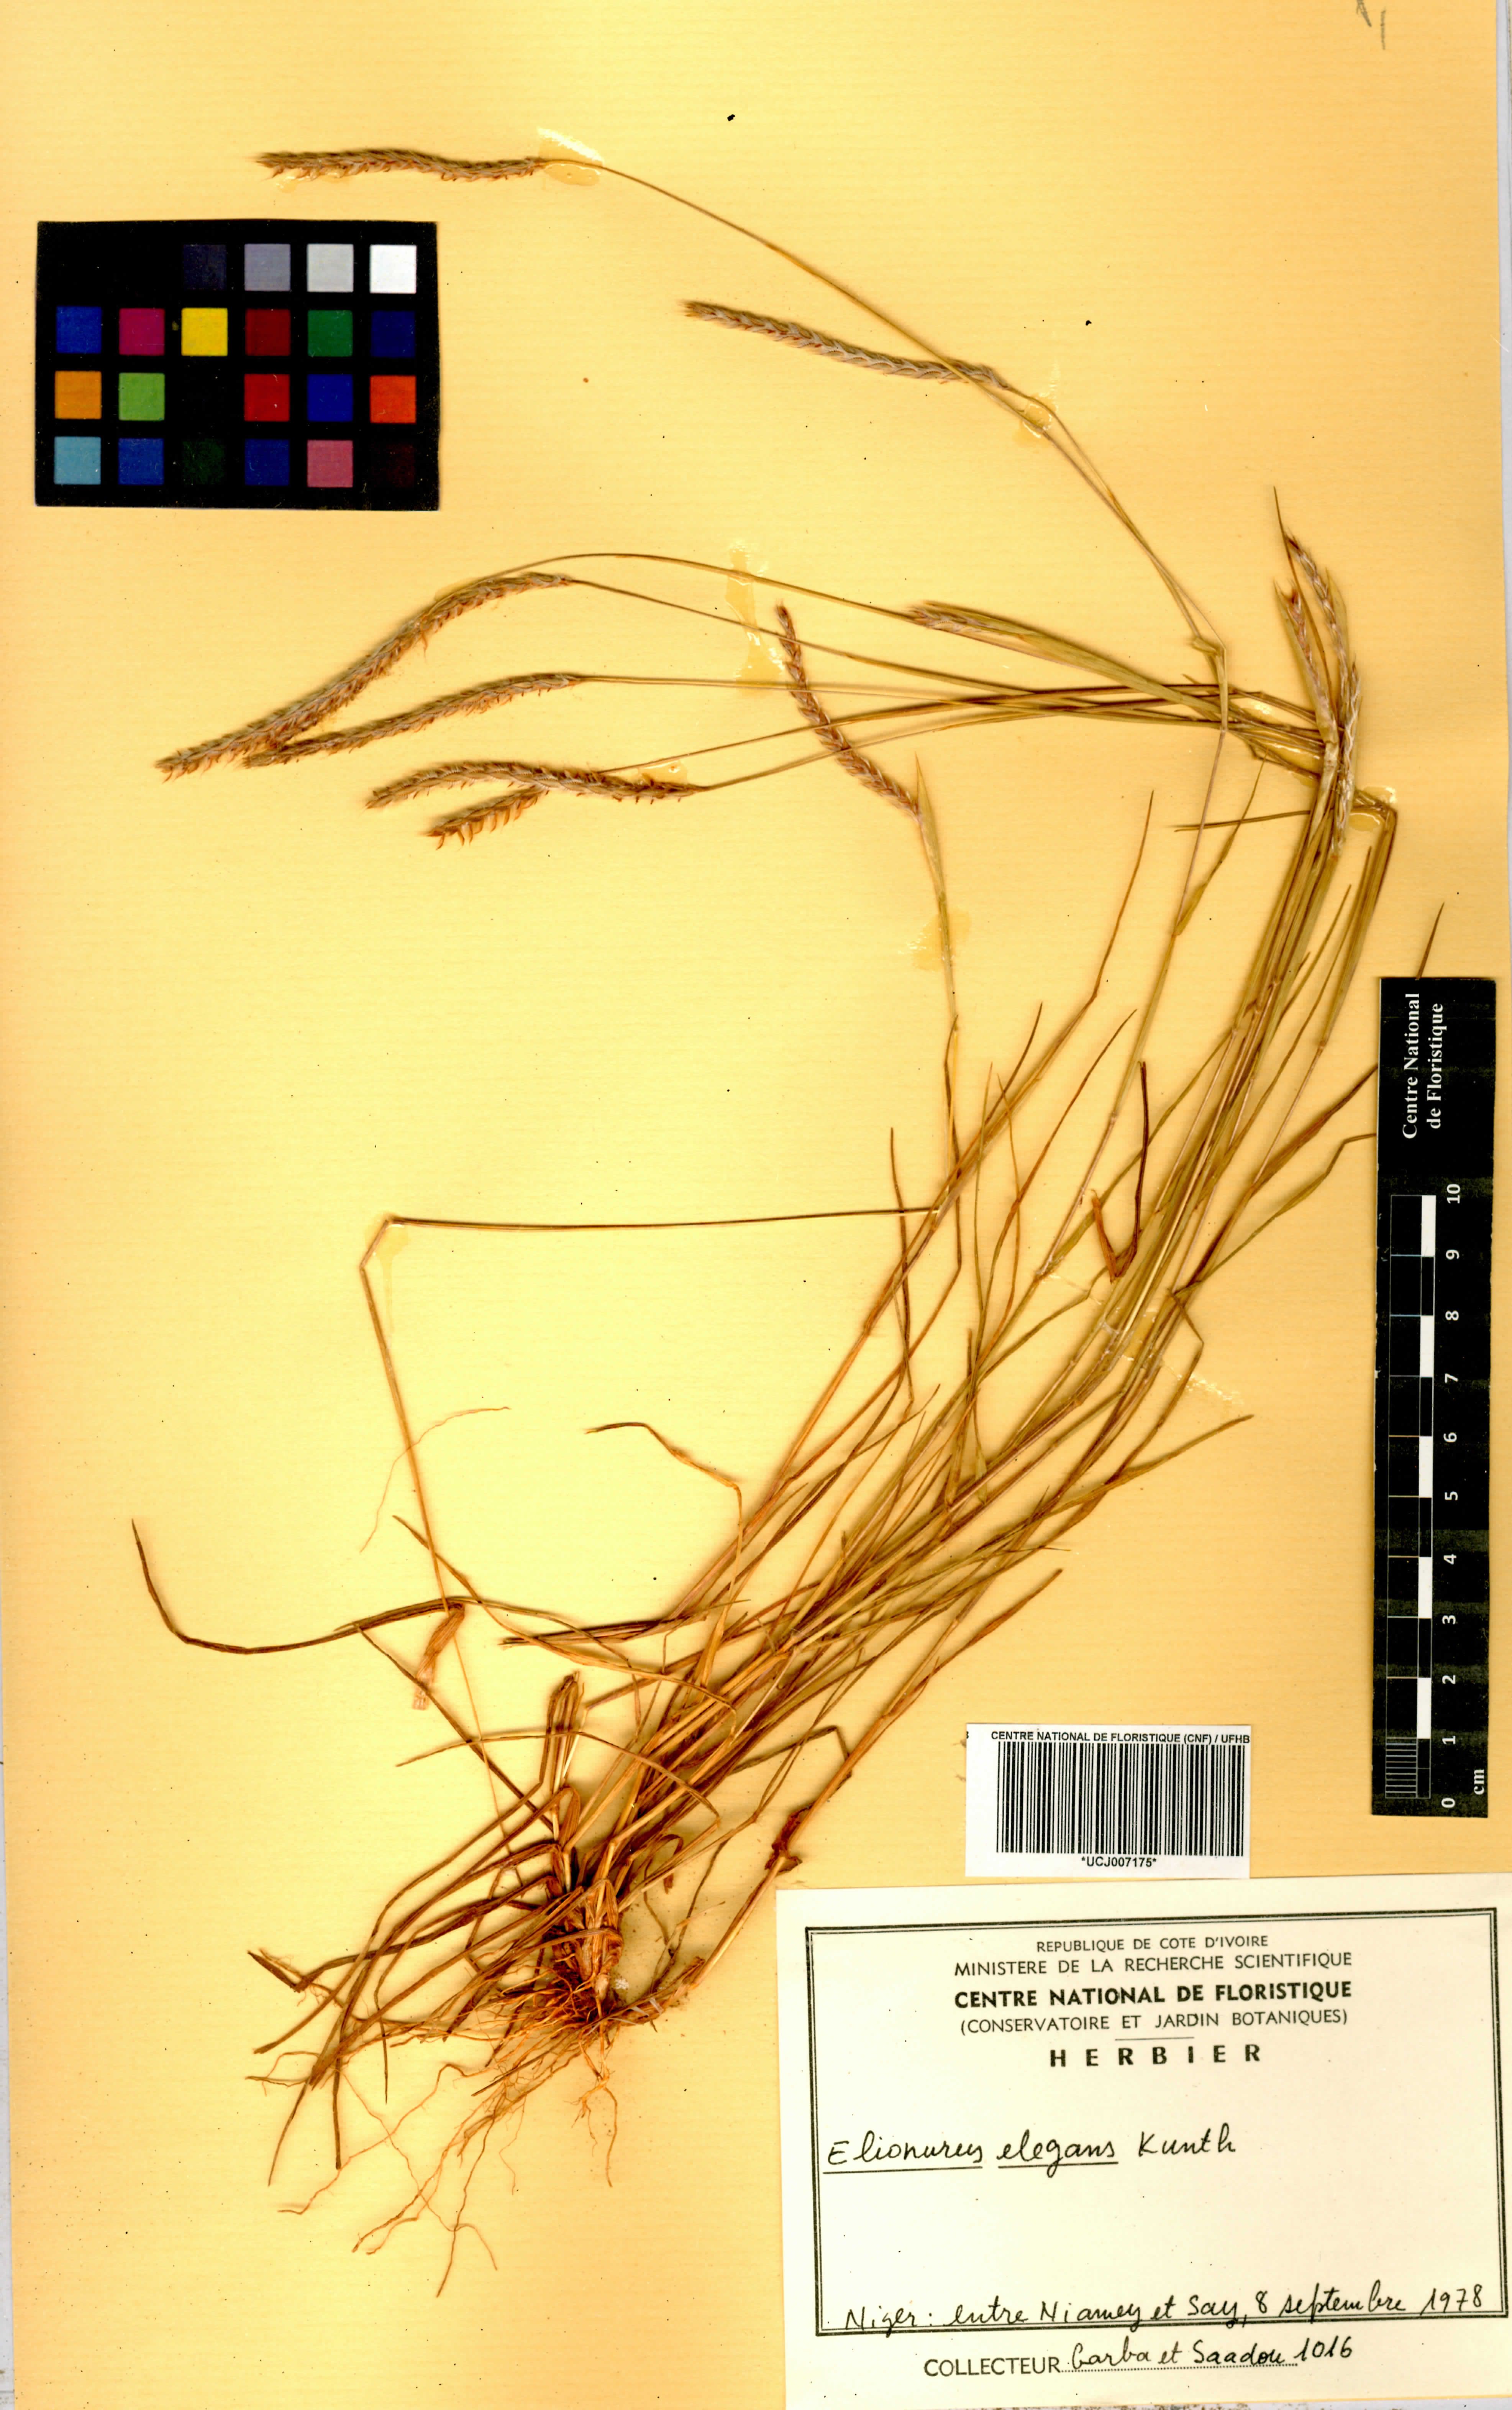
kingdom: Plantae
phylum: Tracheophyta
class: Liliopsida
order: Poales
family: Poaceae
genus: Elionurus
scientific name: Elionurus elegans
